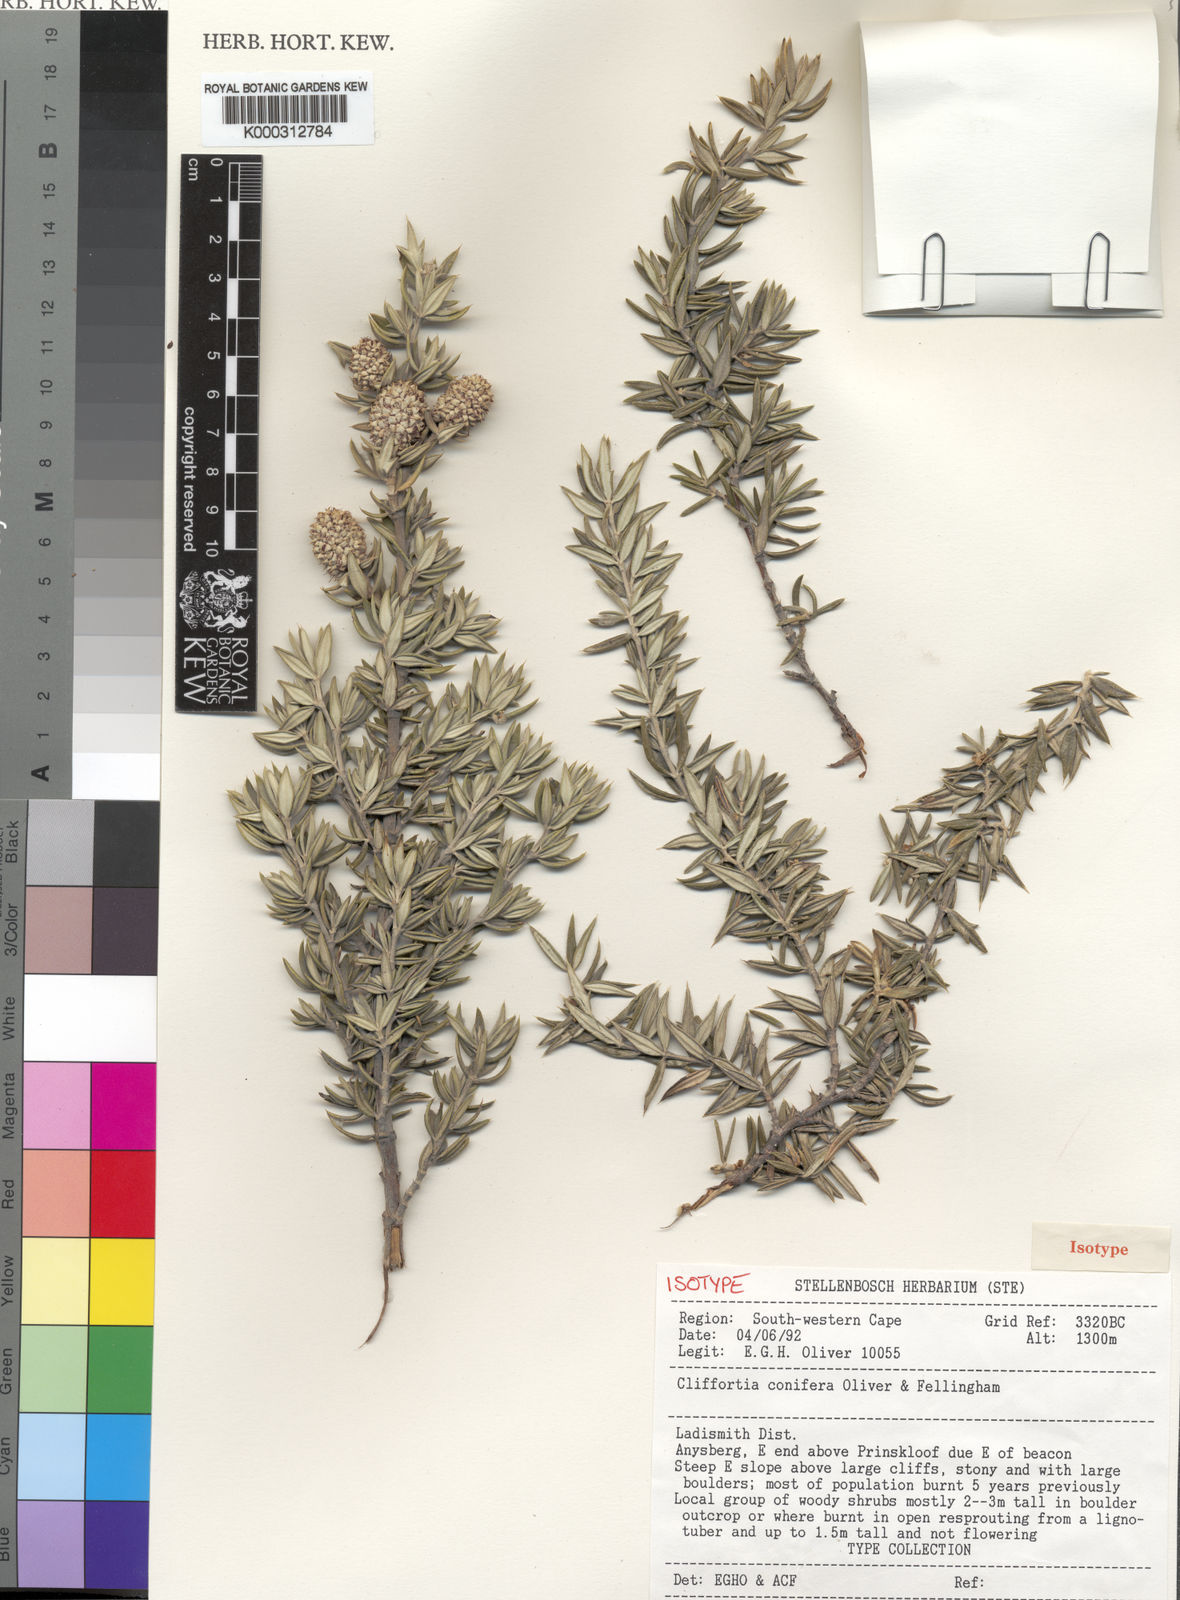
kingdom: Plantae
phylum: Tracheophyta
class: Magnoliopsida
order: Rosales
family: Rosaceae
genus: Cliffortia
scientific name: Cliffortia conifera
